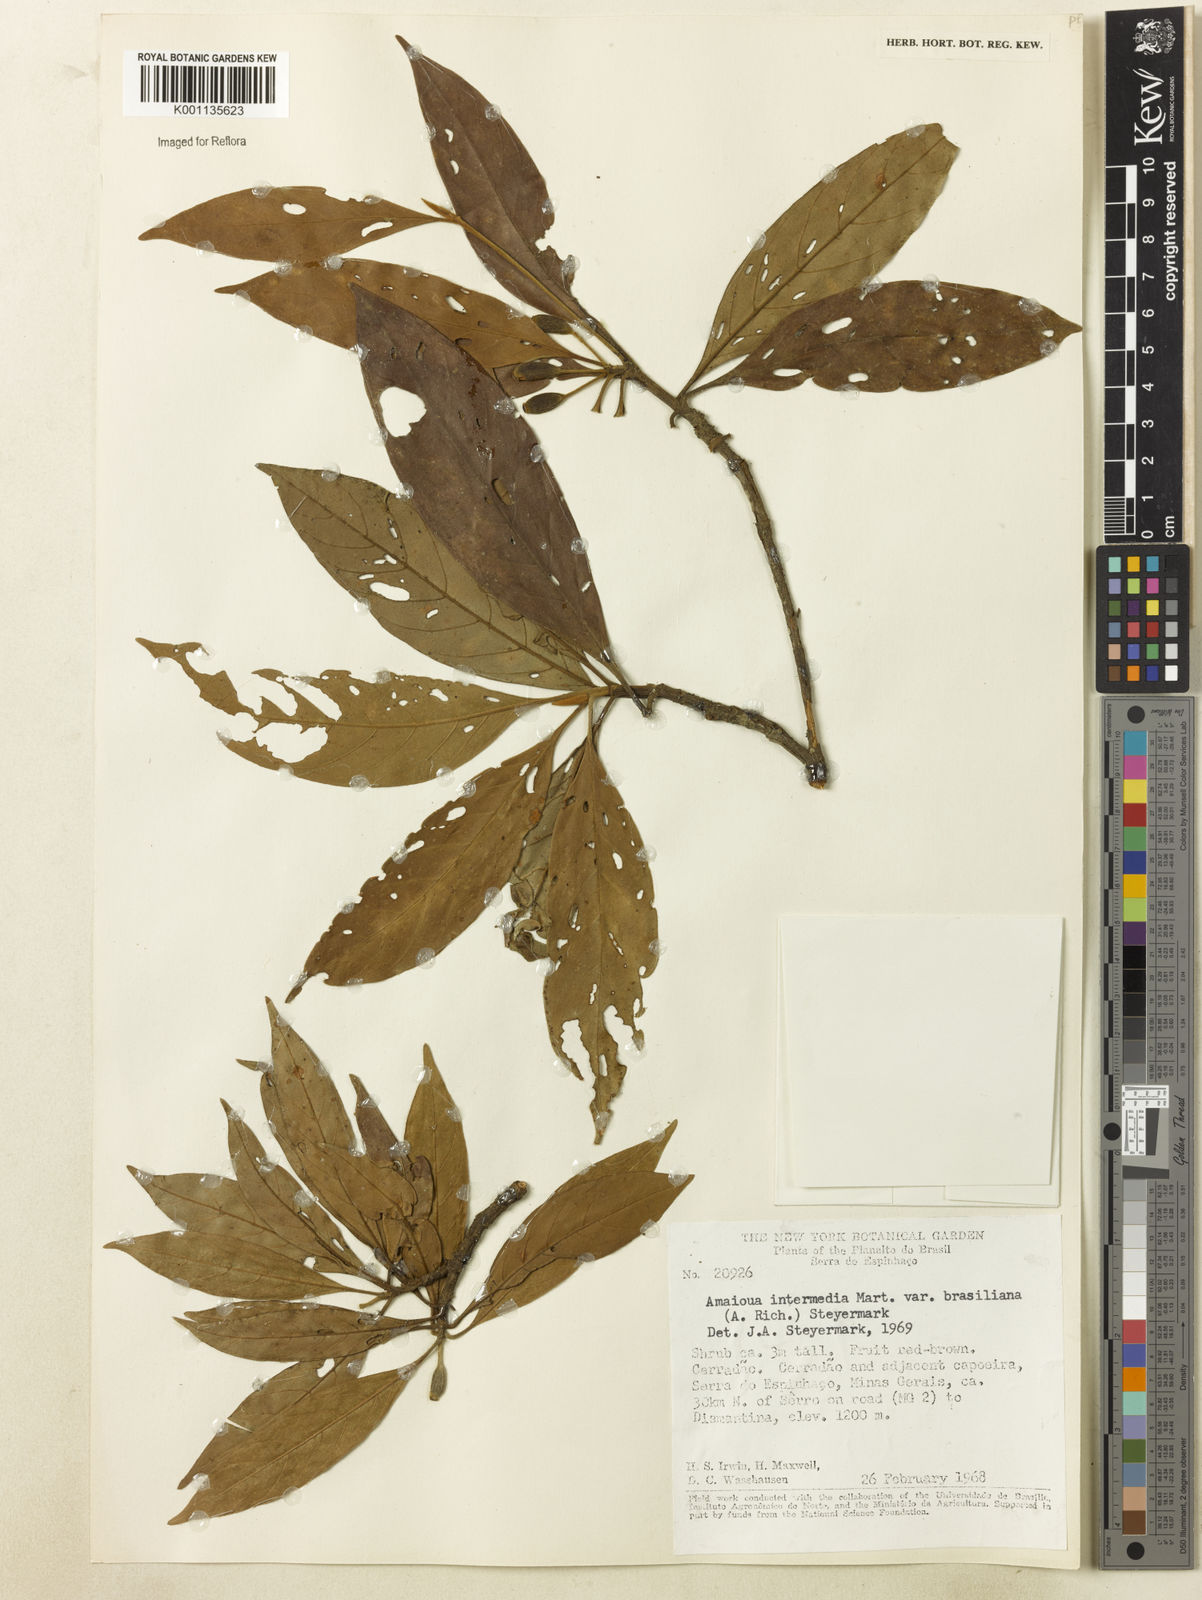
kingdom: Plantae
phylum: Tracheophyta
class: Magnoliopsida
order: Gentianales
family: Rubiaceae
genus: Amaioua
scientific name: Amaioua intermedia
